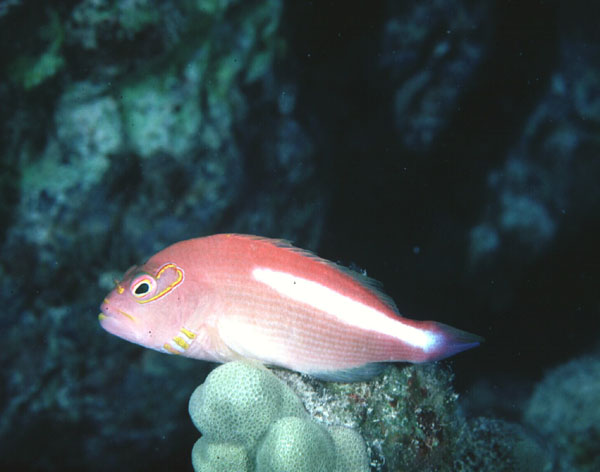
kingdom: Animalia
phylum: Chordata
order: Perciformes
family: Cirrhitidae
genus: Paracirrhites
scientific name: Paracirrhites arcatus
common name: Arc-eye hawkfish
